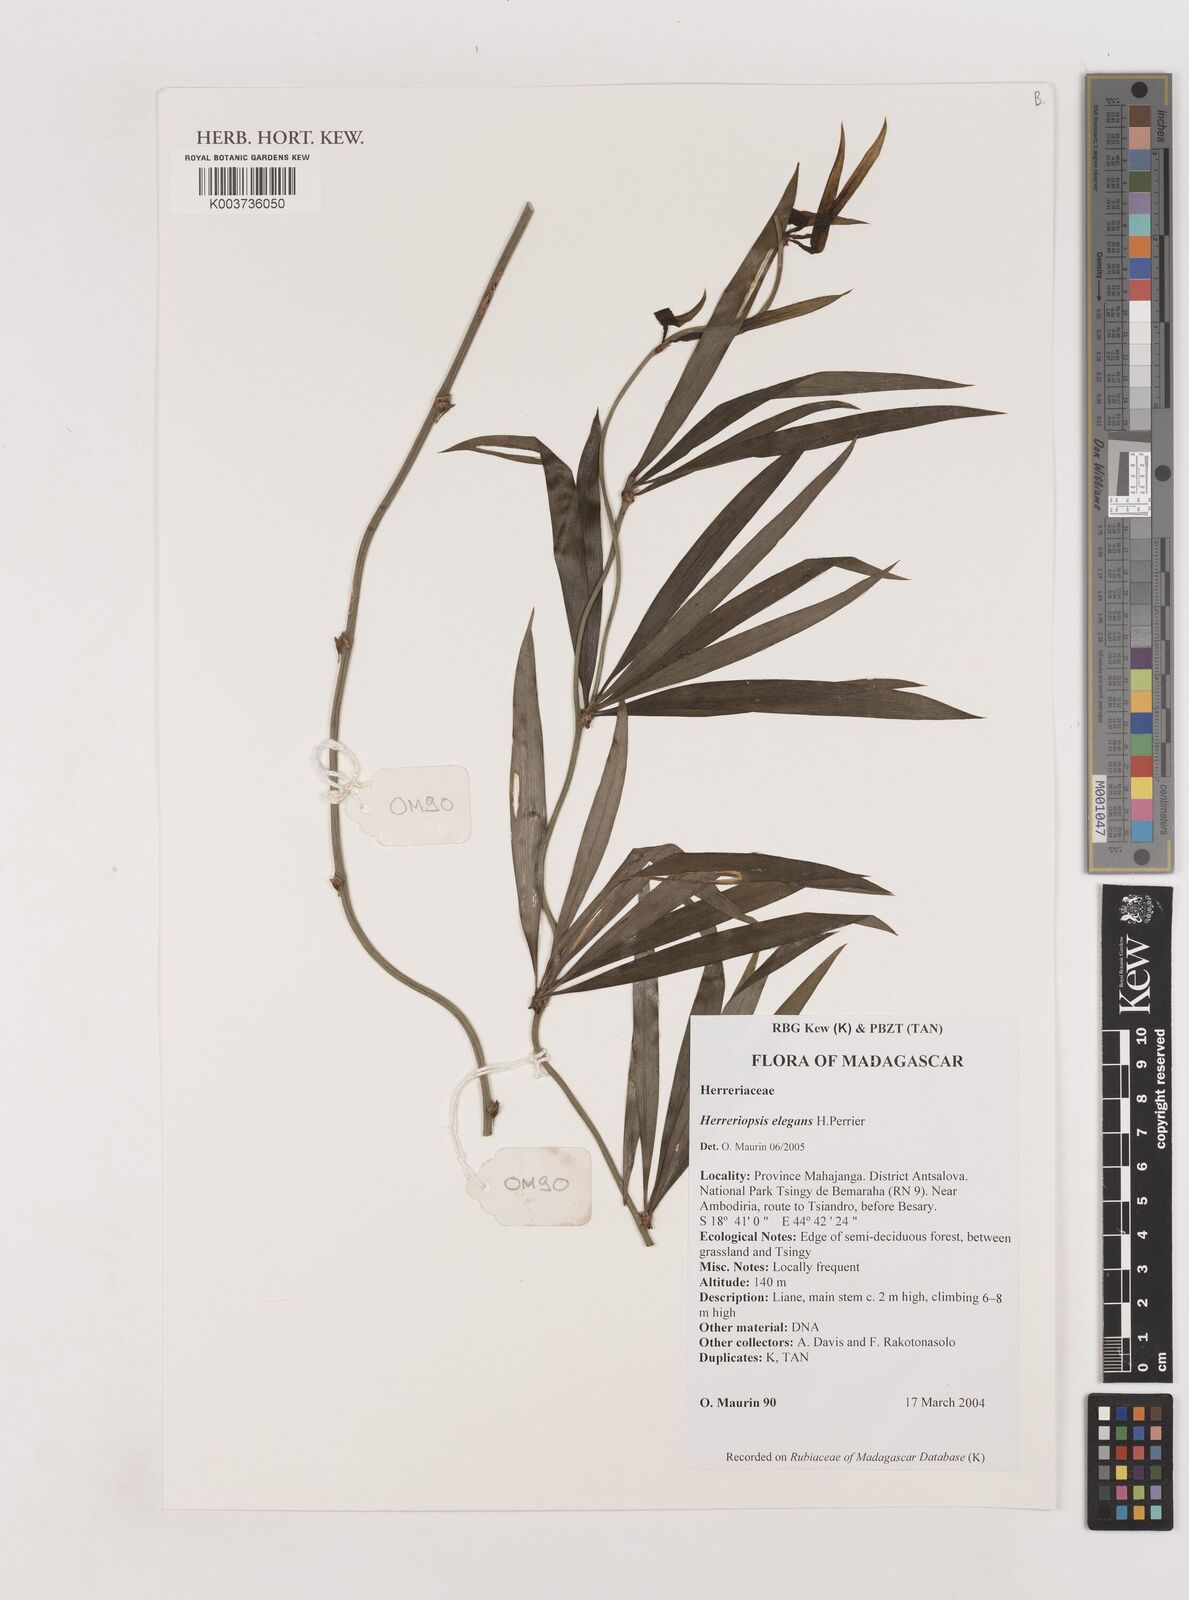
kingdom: Plantae
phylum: Tracheophyta
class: Liliopsida
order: Asparagales
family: Asparagaceae
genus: Herreriopsis
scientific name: Herreriopsis elegans
